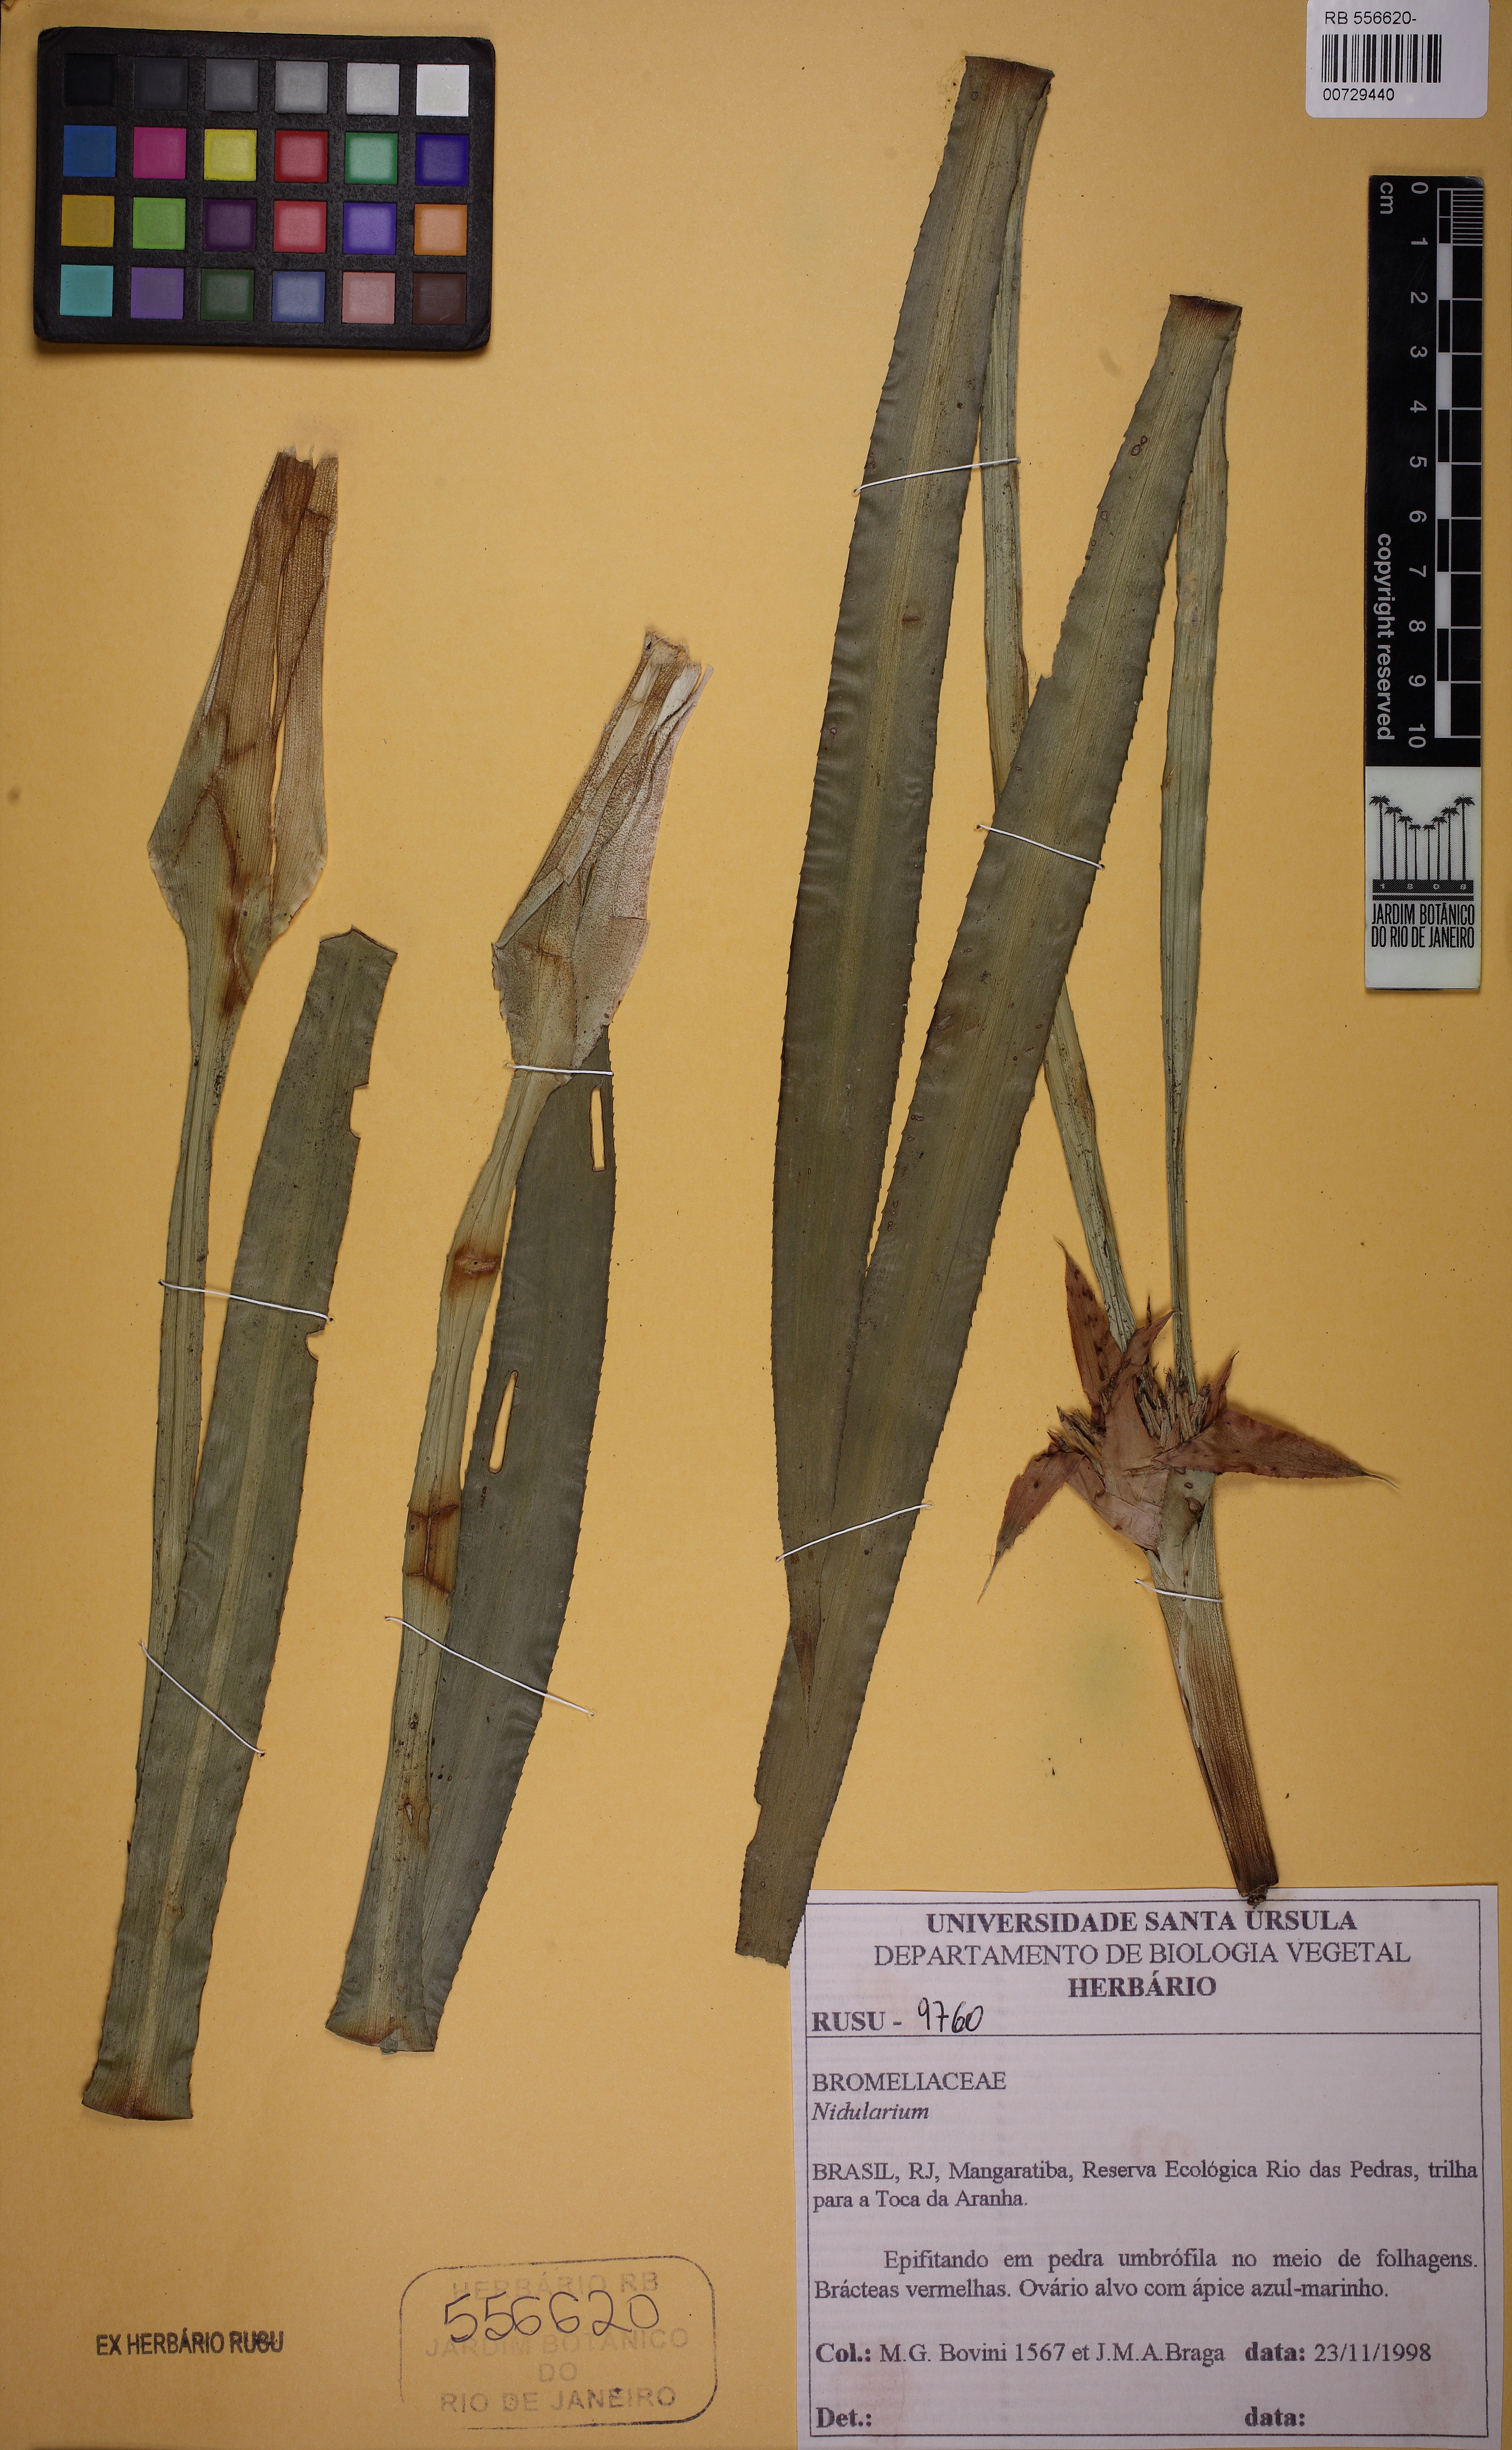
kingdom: Plantae
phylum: Tracheophyta
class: Liliopsida
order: Poales
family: Bromeliaceae
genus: Nidularium
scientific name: Nidularium
